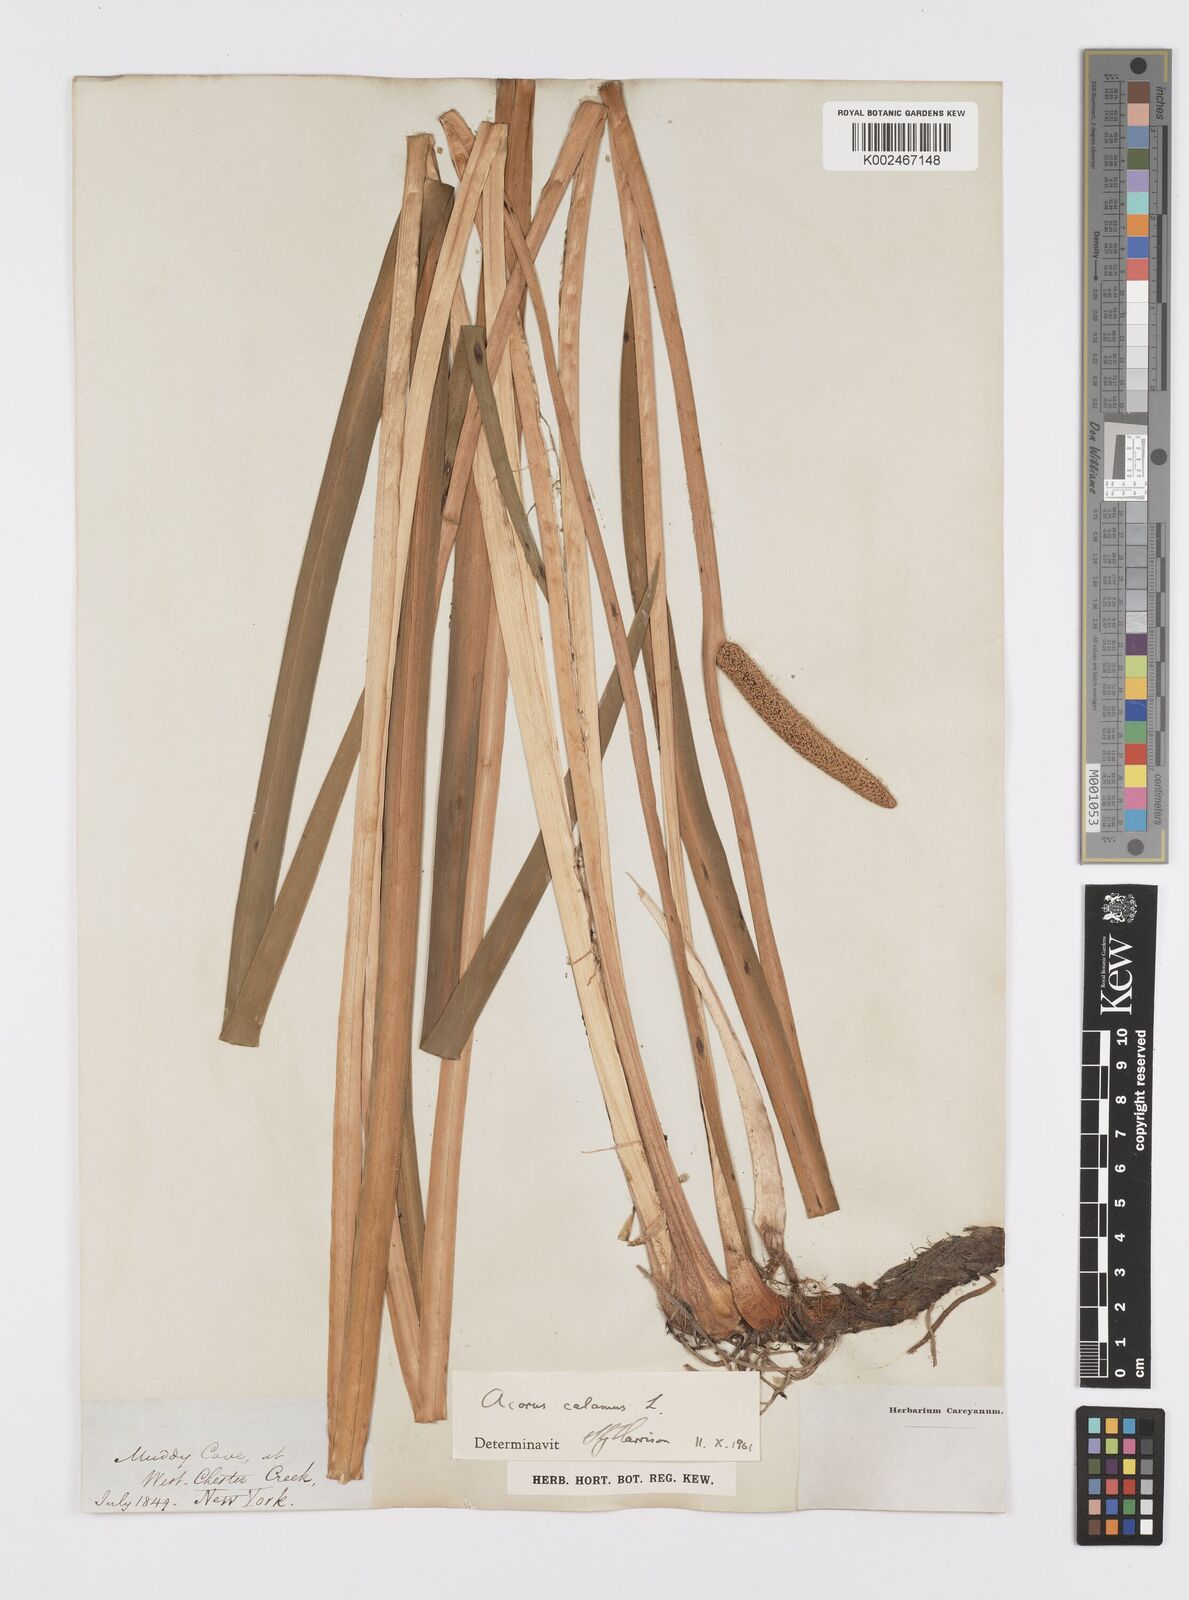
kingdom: Plantae
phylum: Tracheophyta
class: Liliopsida
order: Acorales
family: Acoraceae
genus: Acorus
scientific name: Acorus calamus
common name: Sweet-flag
